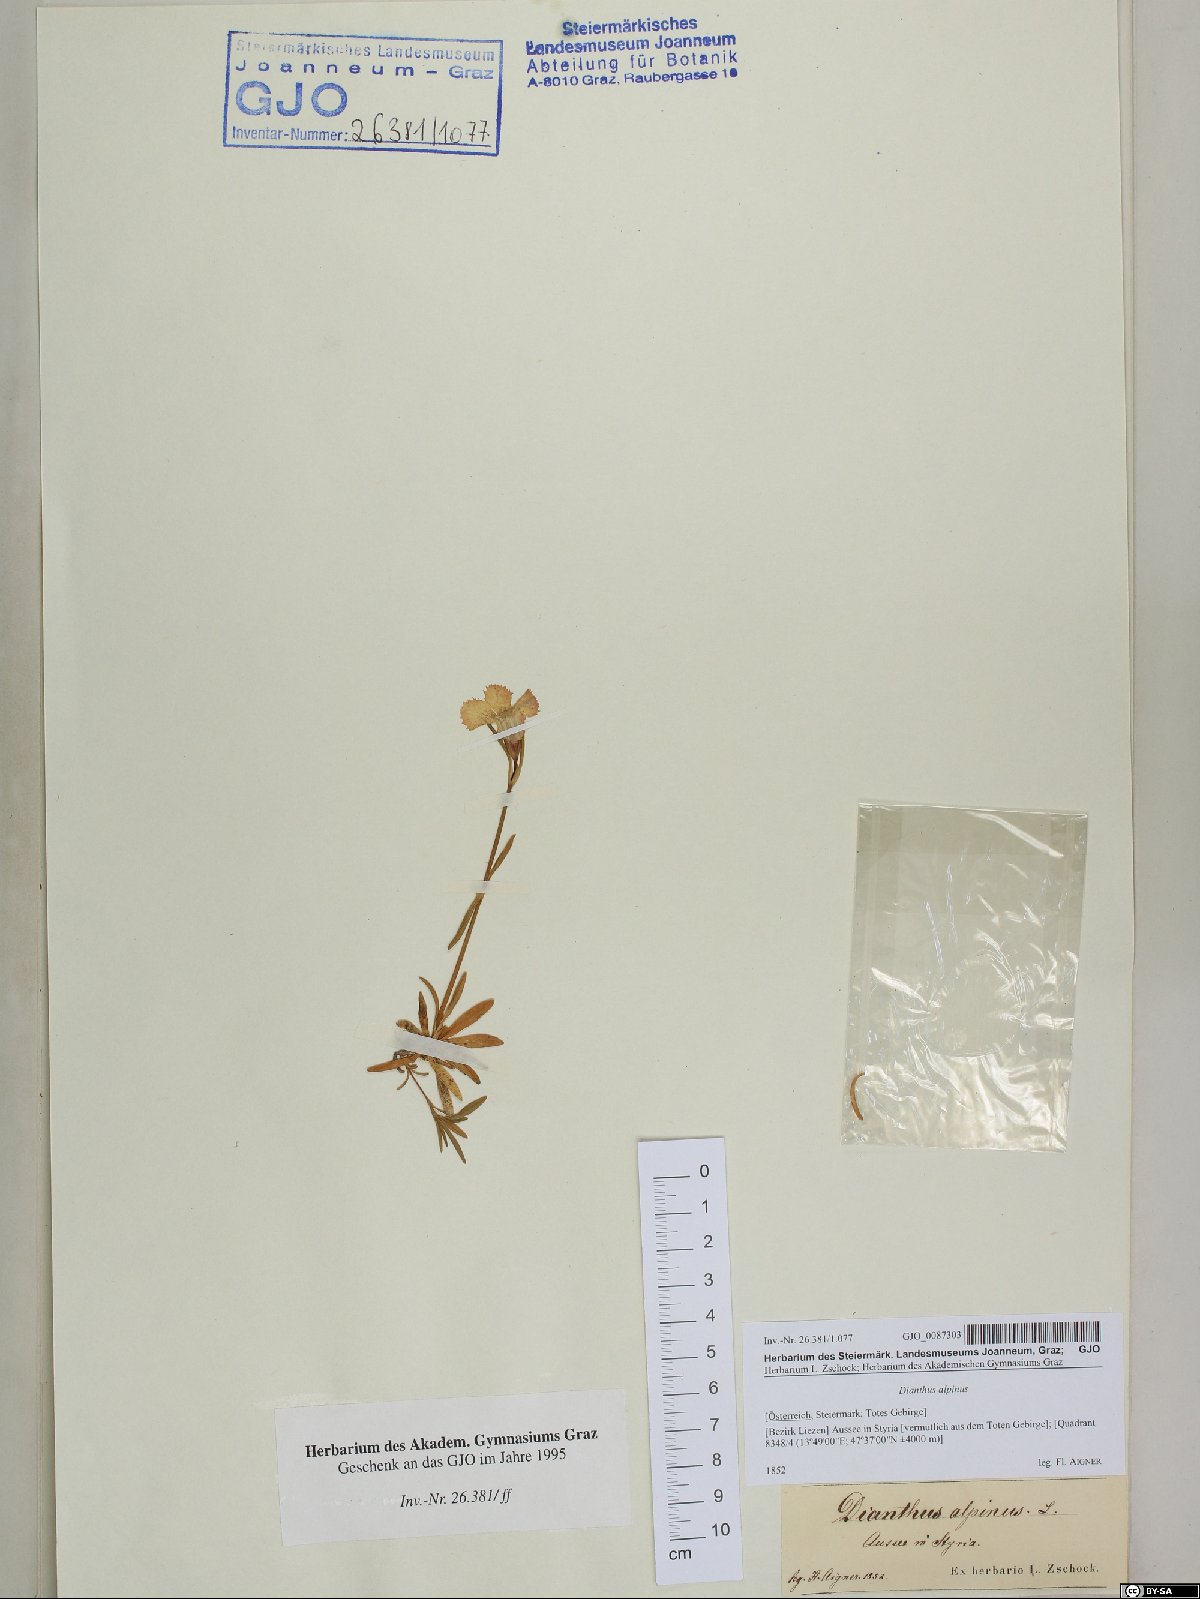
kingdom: Plantae
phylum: Tracheophyta
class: Magnoliopsida
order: Caryophyllales
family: Caryophyllaceae
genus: Dianthus
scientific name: Dianthus alpinus
